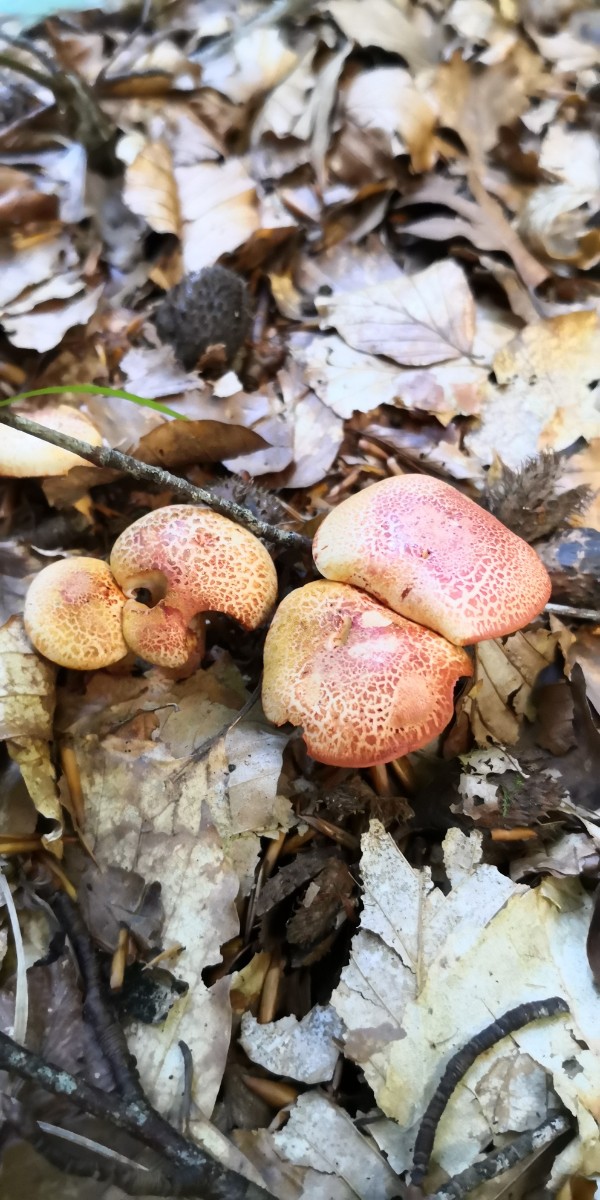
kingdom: Fungi
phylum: Basidiomycota
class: Agaricomycetes
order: Agaricales
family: Cortinariaceae
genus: Cortinarius
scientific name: Cortinarius bolaris
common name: cinnoberskællet slørhat
